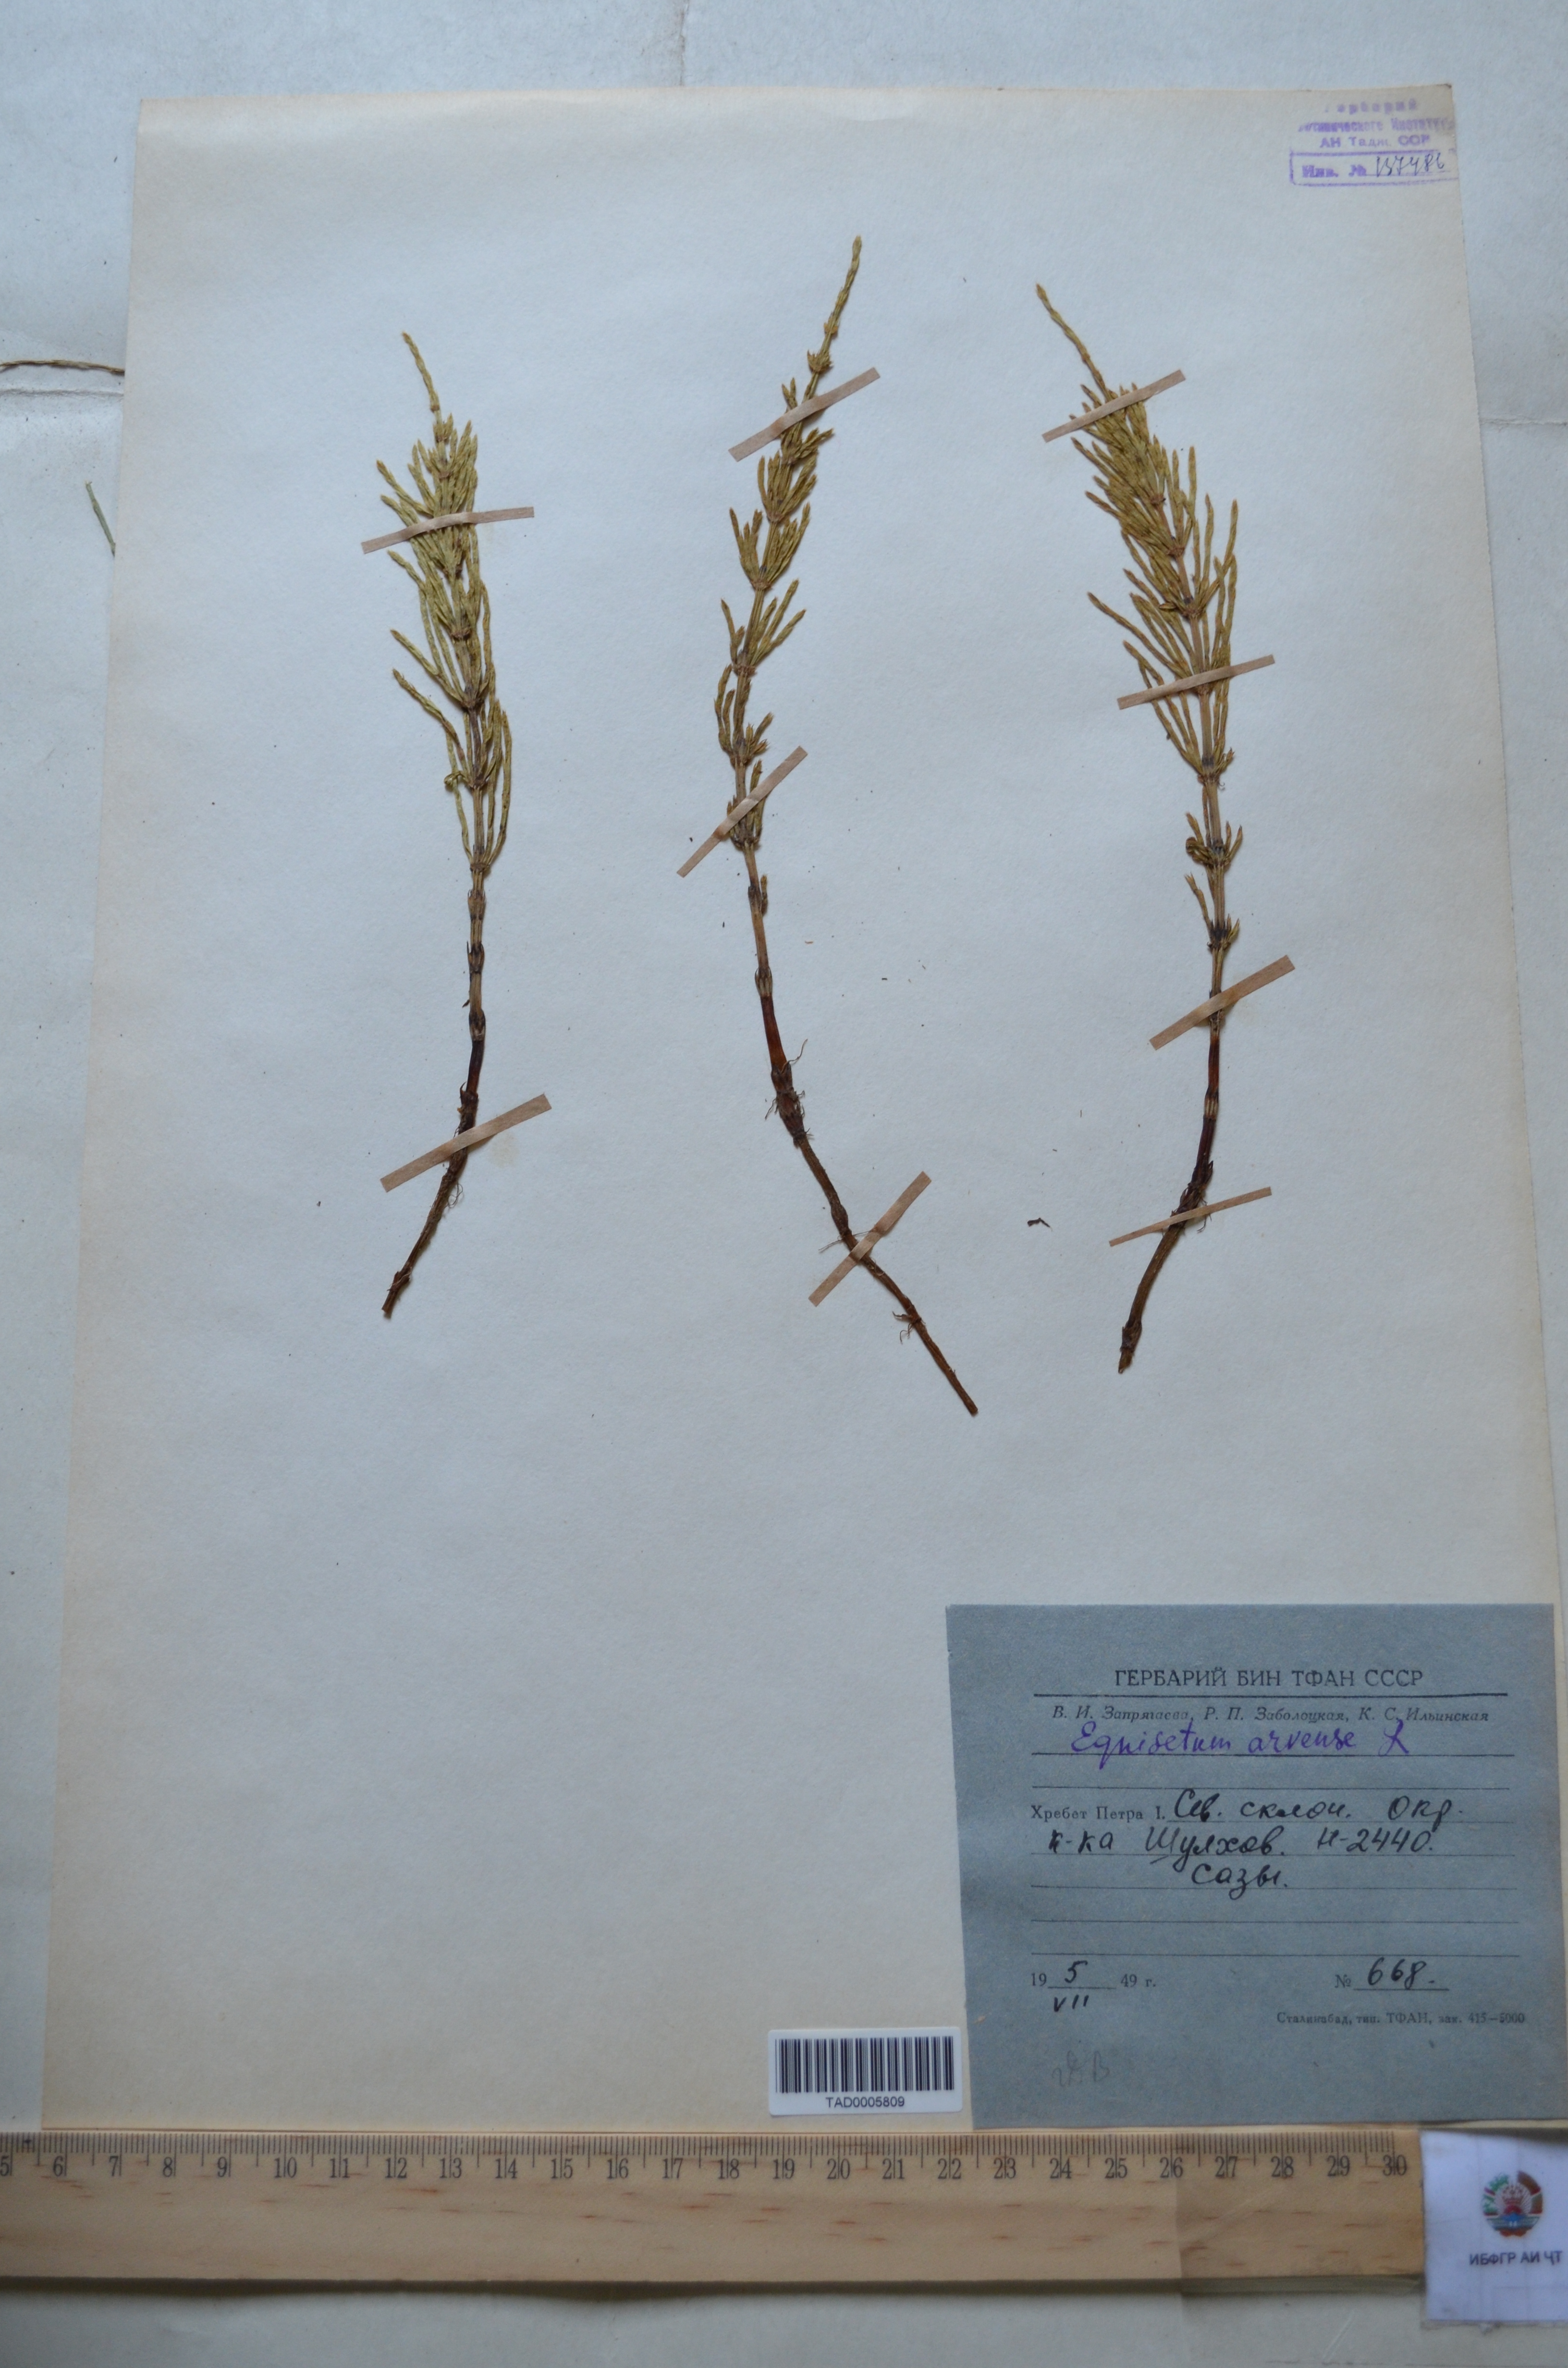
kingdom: Plantae
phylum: Tracheophyta
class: Polypodiopsida
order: Equisetales
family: Equisetaceae
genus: Equisetum
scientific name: Equisetum arvense
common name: Field horsetail
